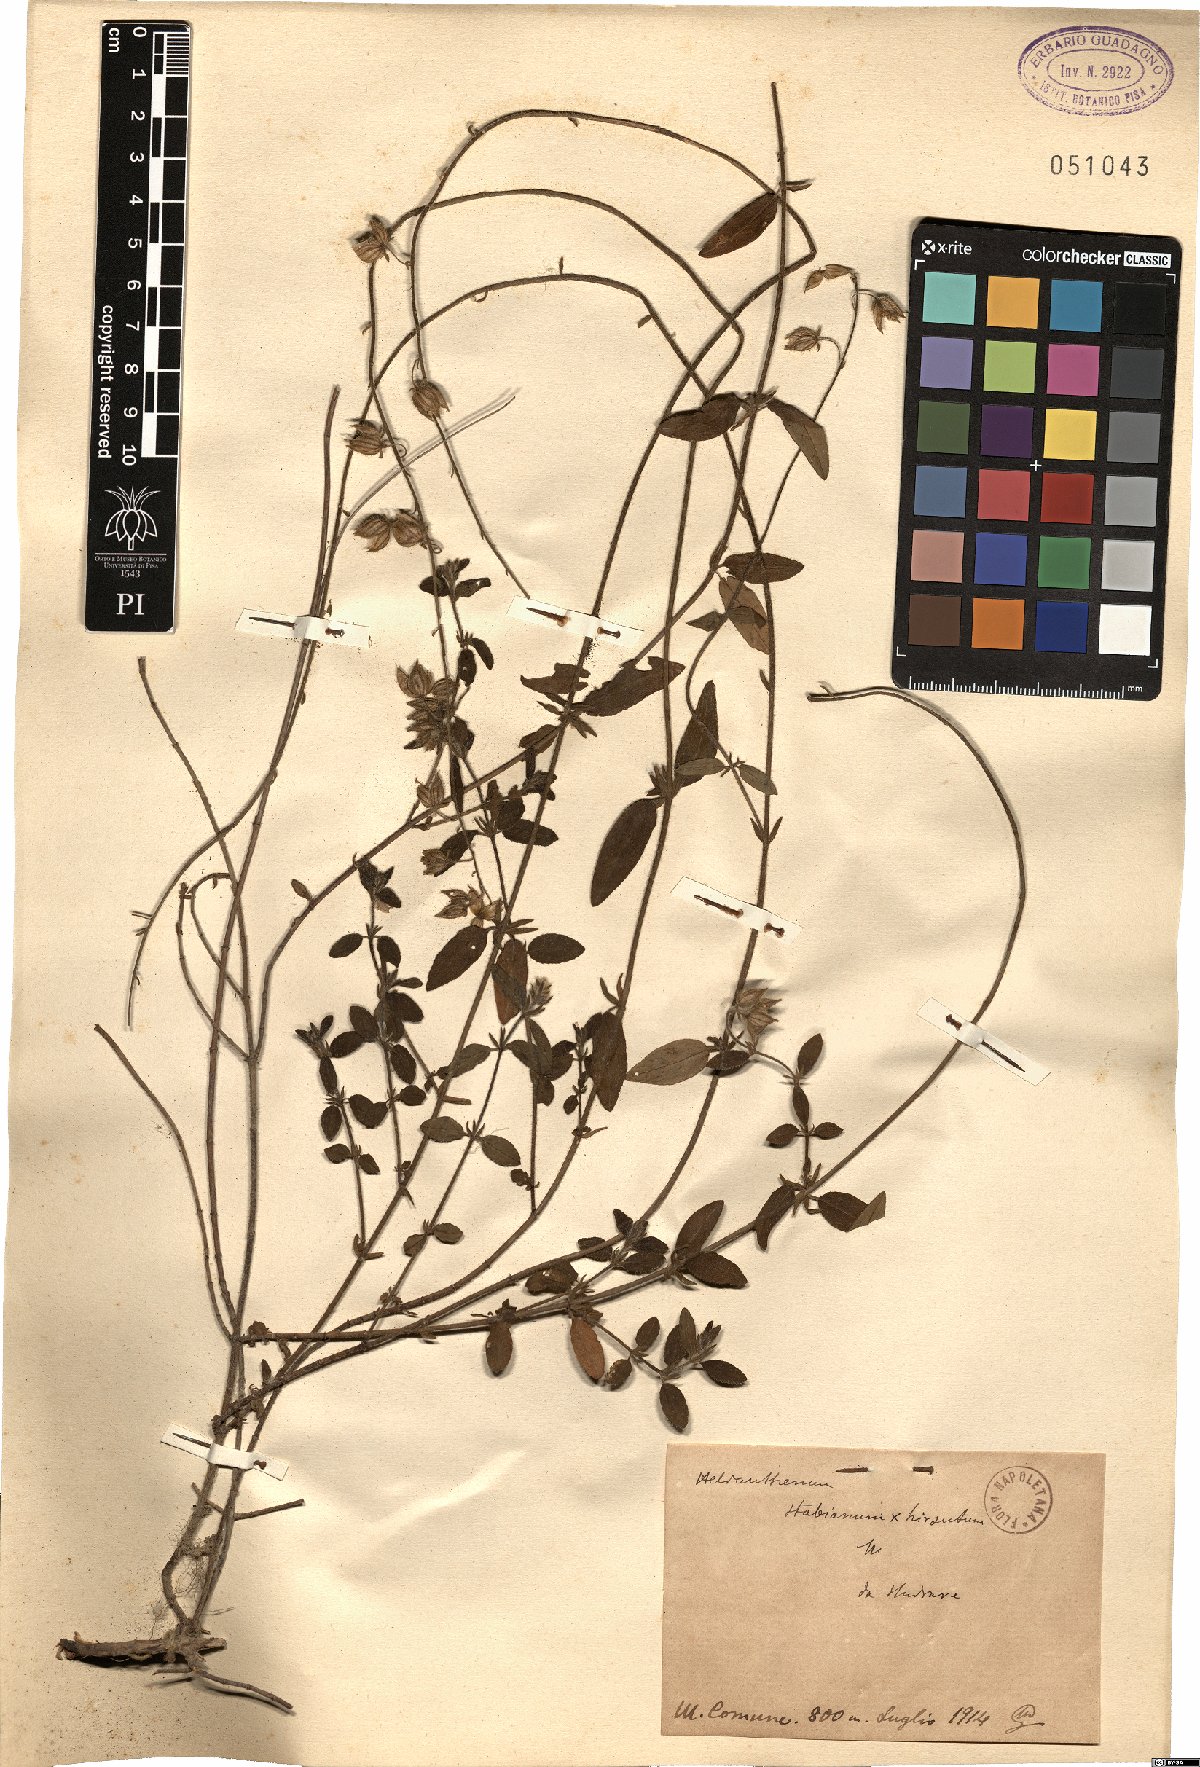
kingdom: Plantae
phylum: Tracheophyta
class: Magnoliopsida
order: Malvales
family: Cistaceae
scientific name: Cistaceae
